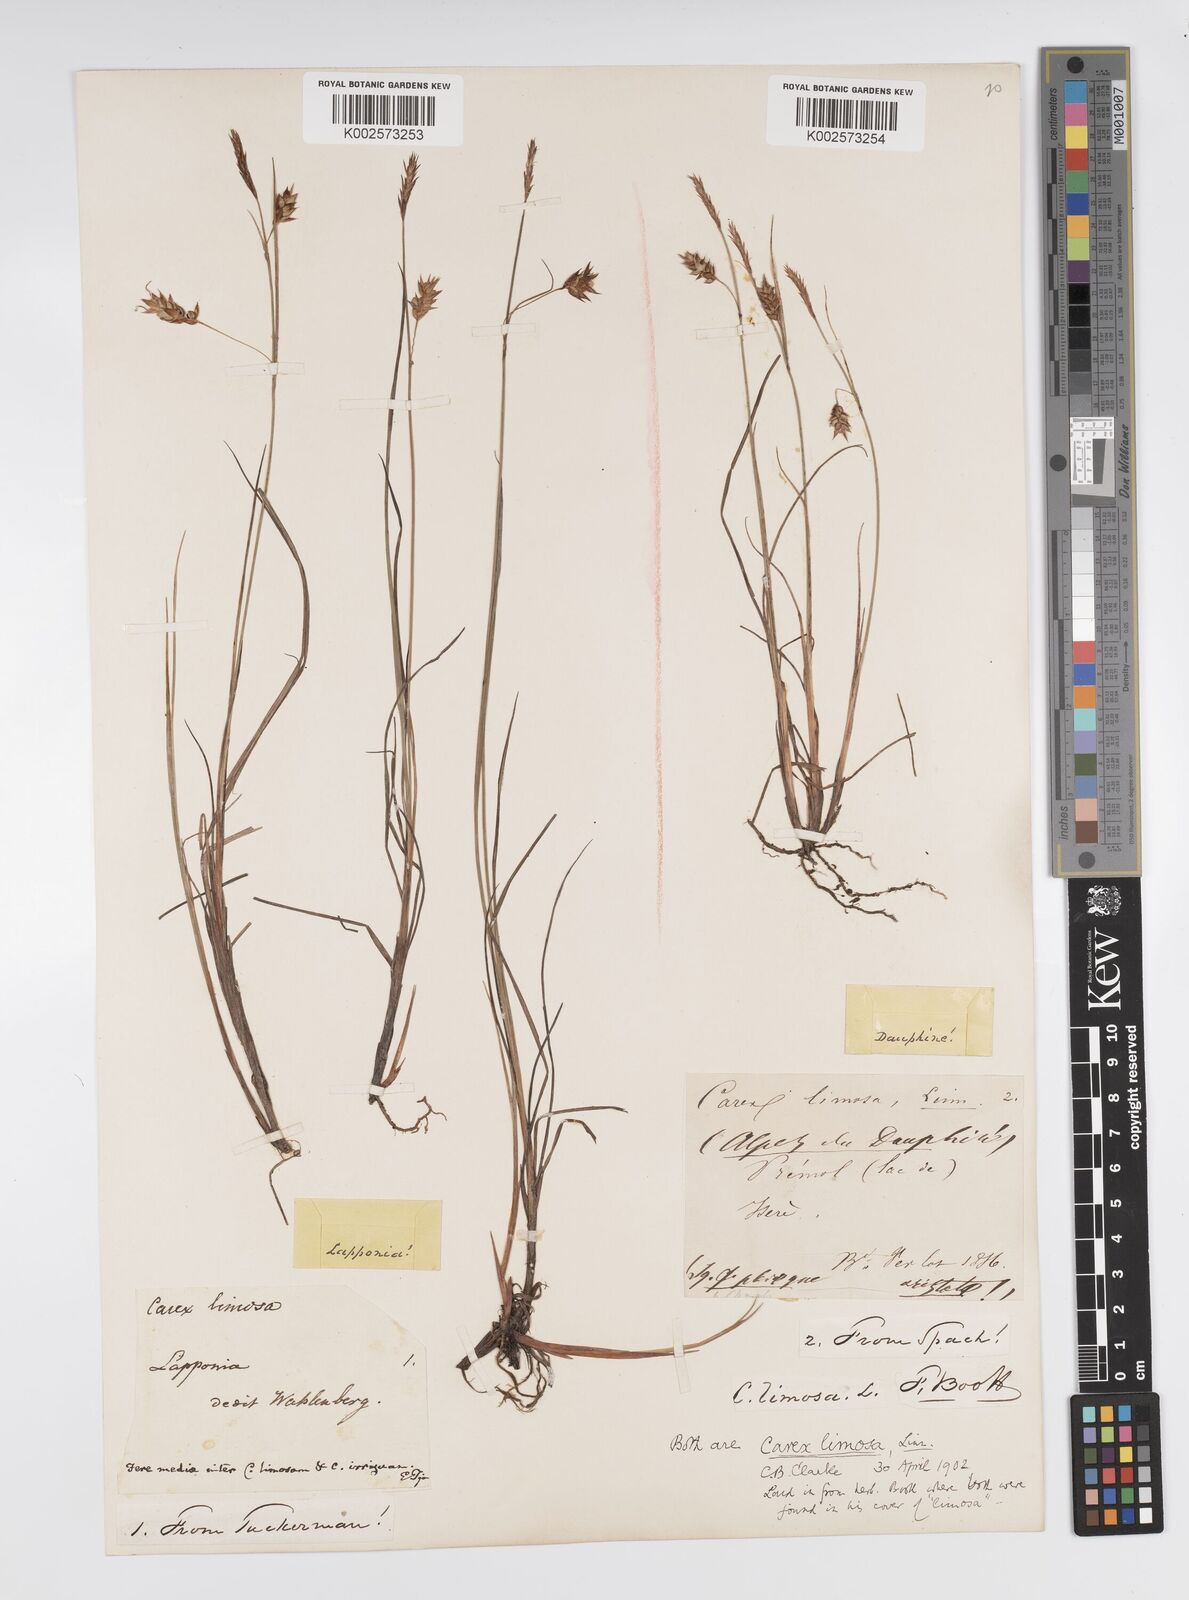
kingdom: Plantae
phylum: Tracheophyta
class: Liliopsida
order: Poales
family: Cyperaceae
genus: Carex
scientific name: Carex magellanica
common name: Bog sedge
